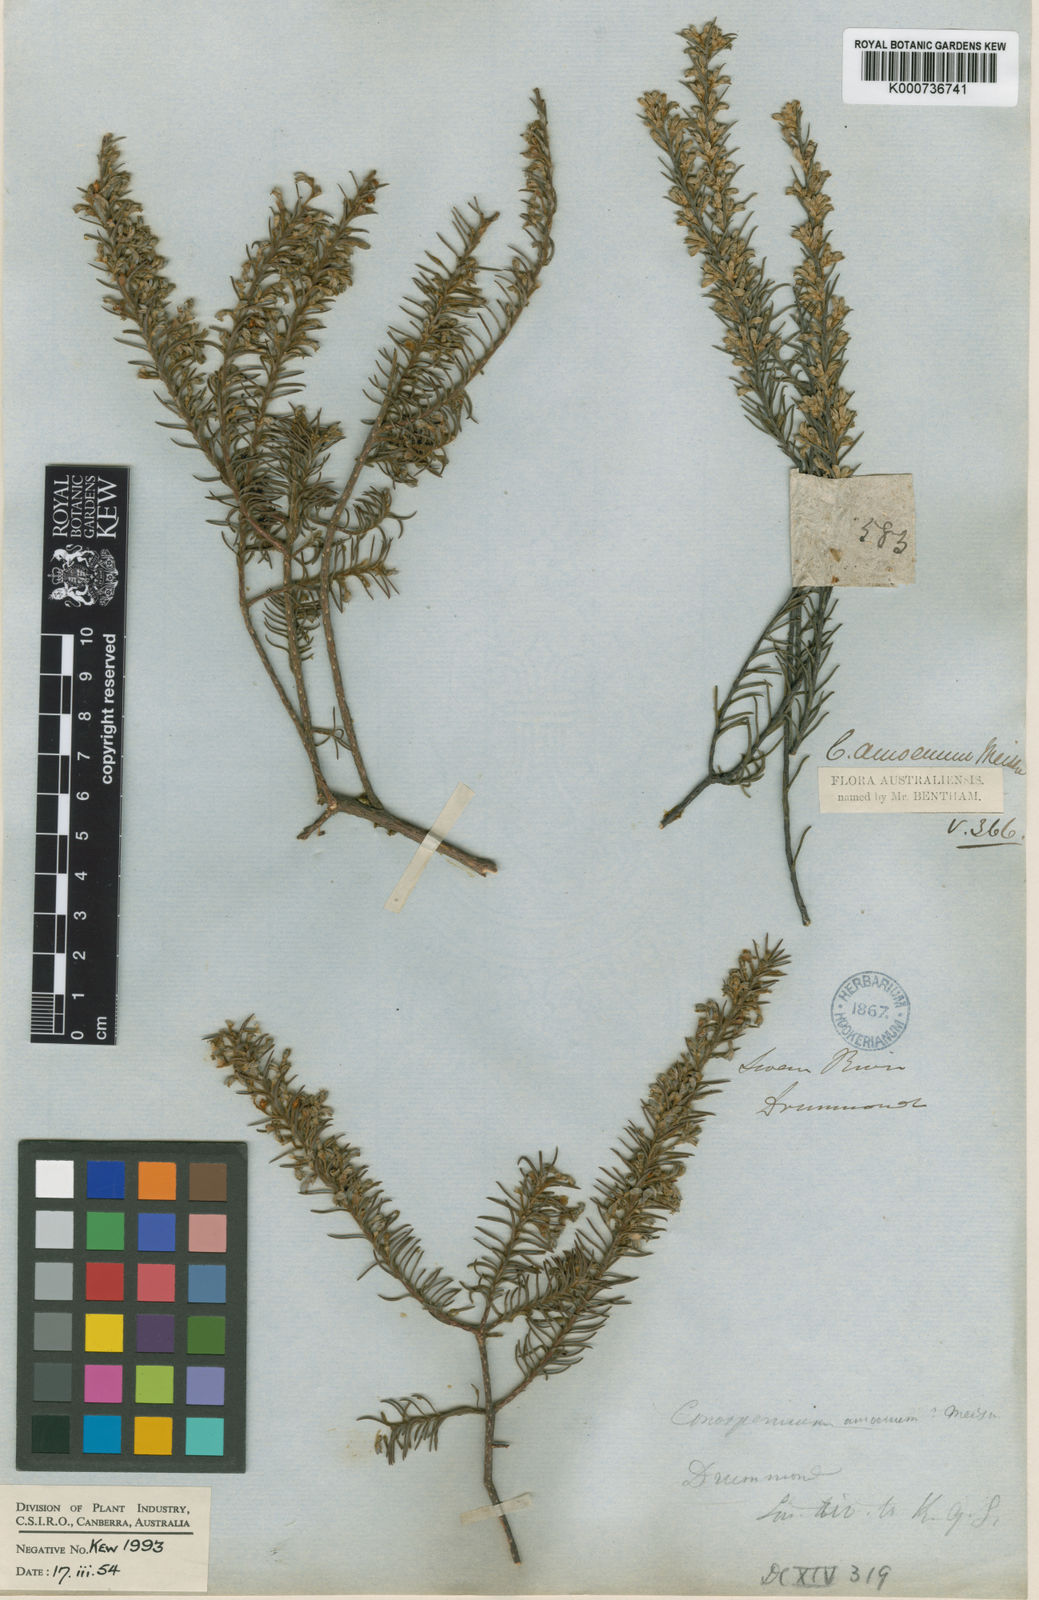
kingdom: Plantae
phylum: Tracheophyta
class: Magnoliopsida
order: Proteales
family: Proteaceae
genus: Conospermum
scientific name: Conospermum amoenum
